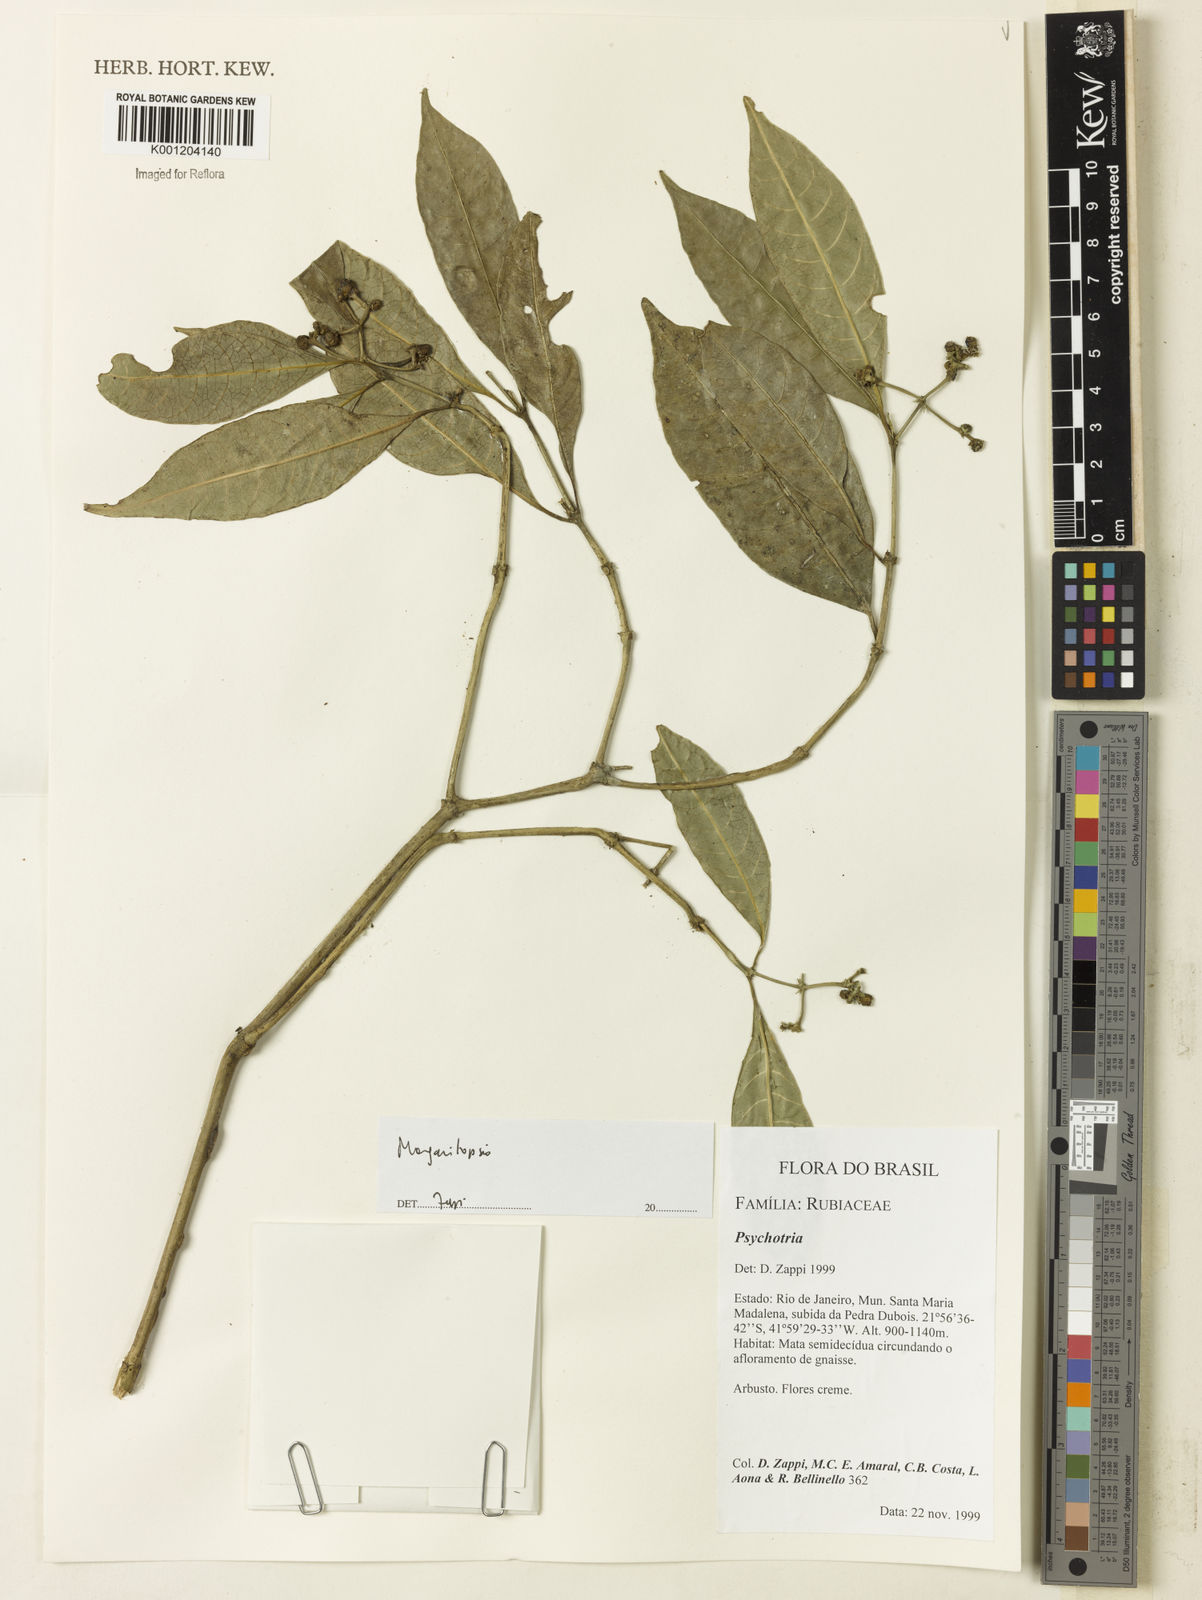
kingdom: Plantae
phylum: Tracheophyta
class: Magnoliopsida
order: Gentianales
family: Rubiaceae
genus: Eumachia
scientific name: Eumachia
